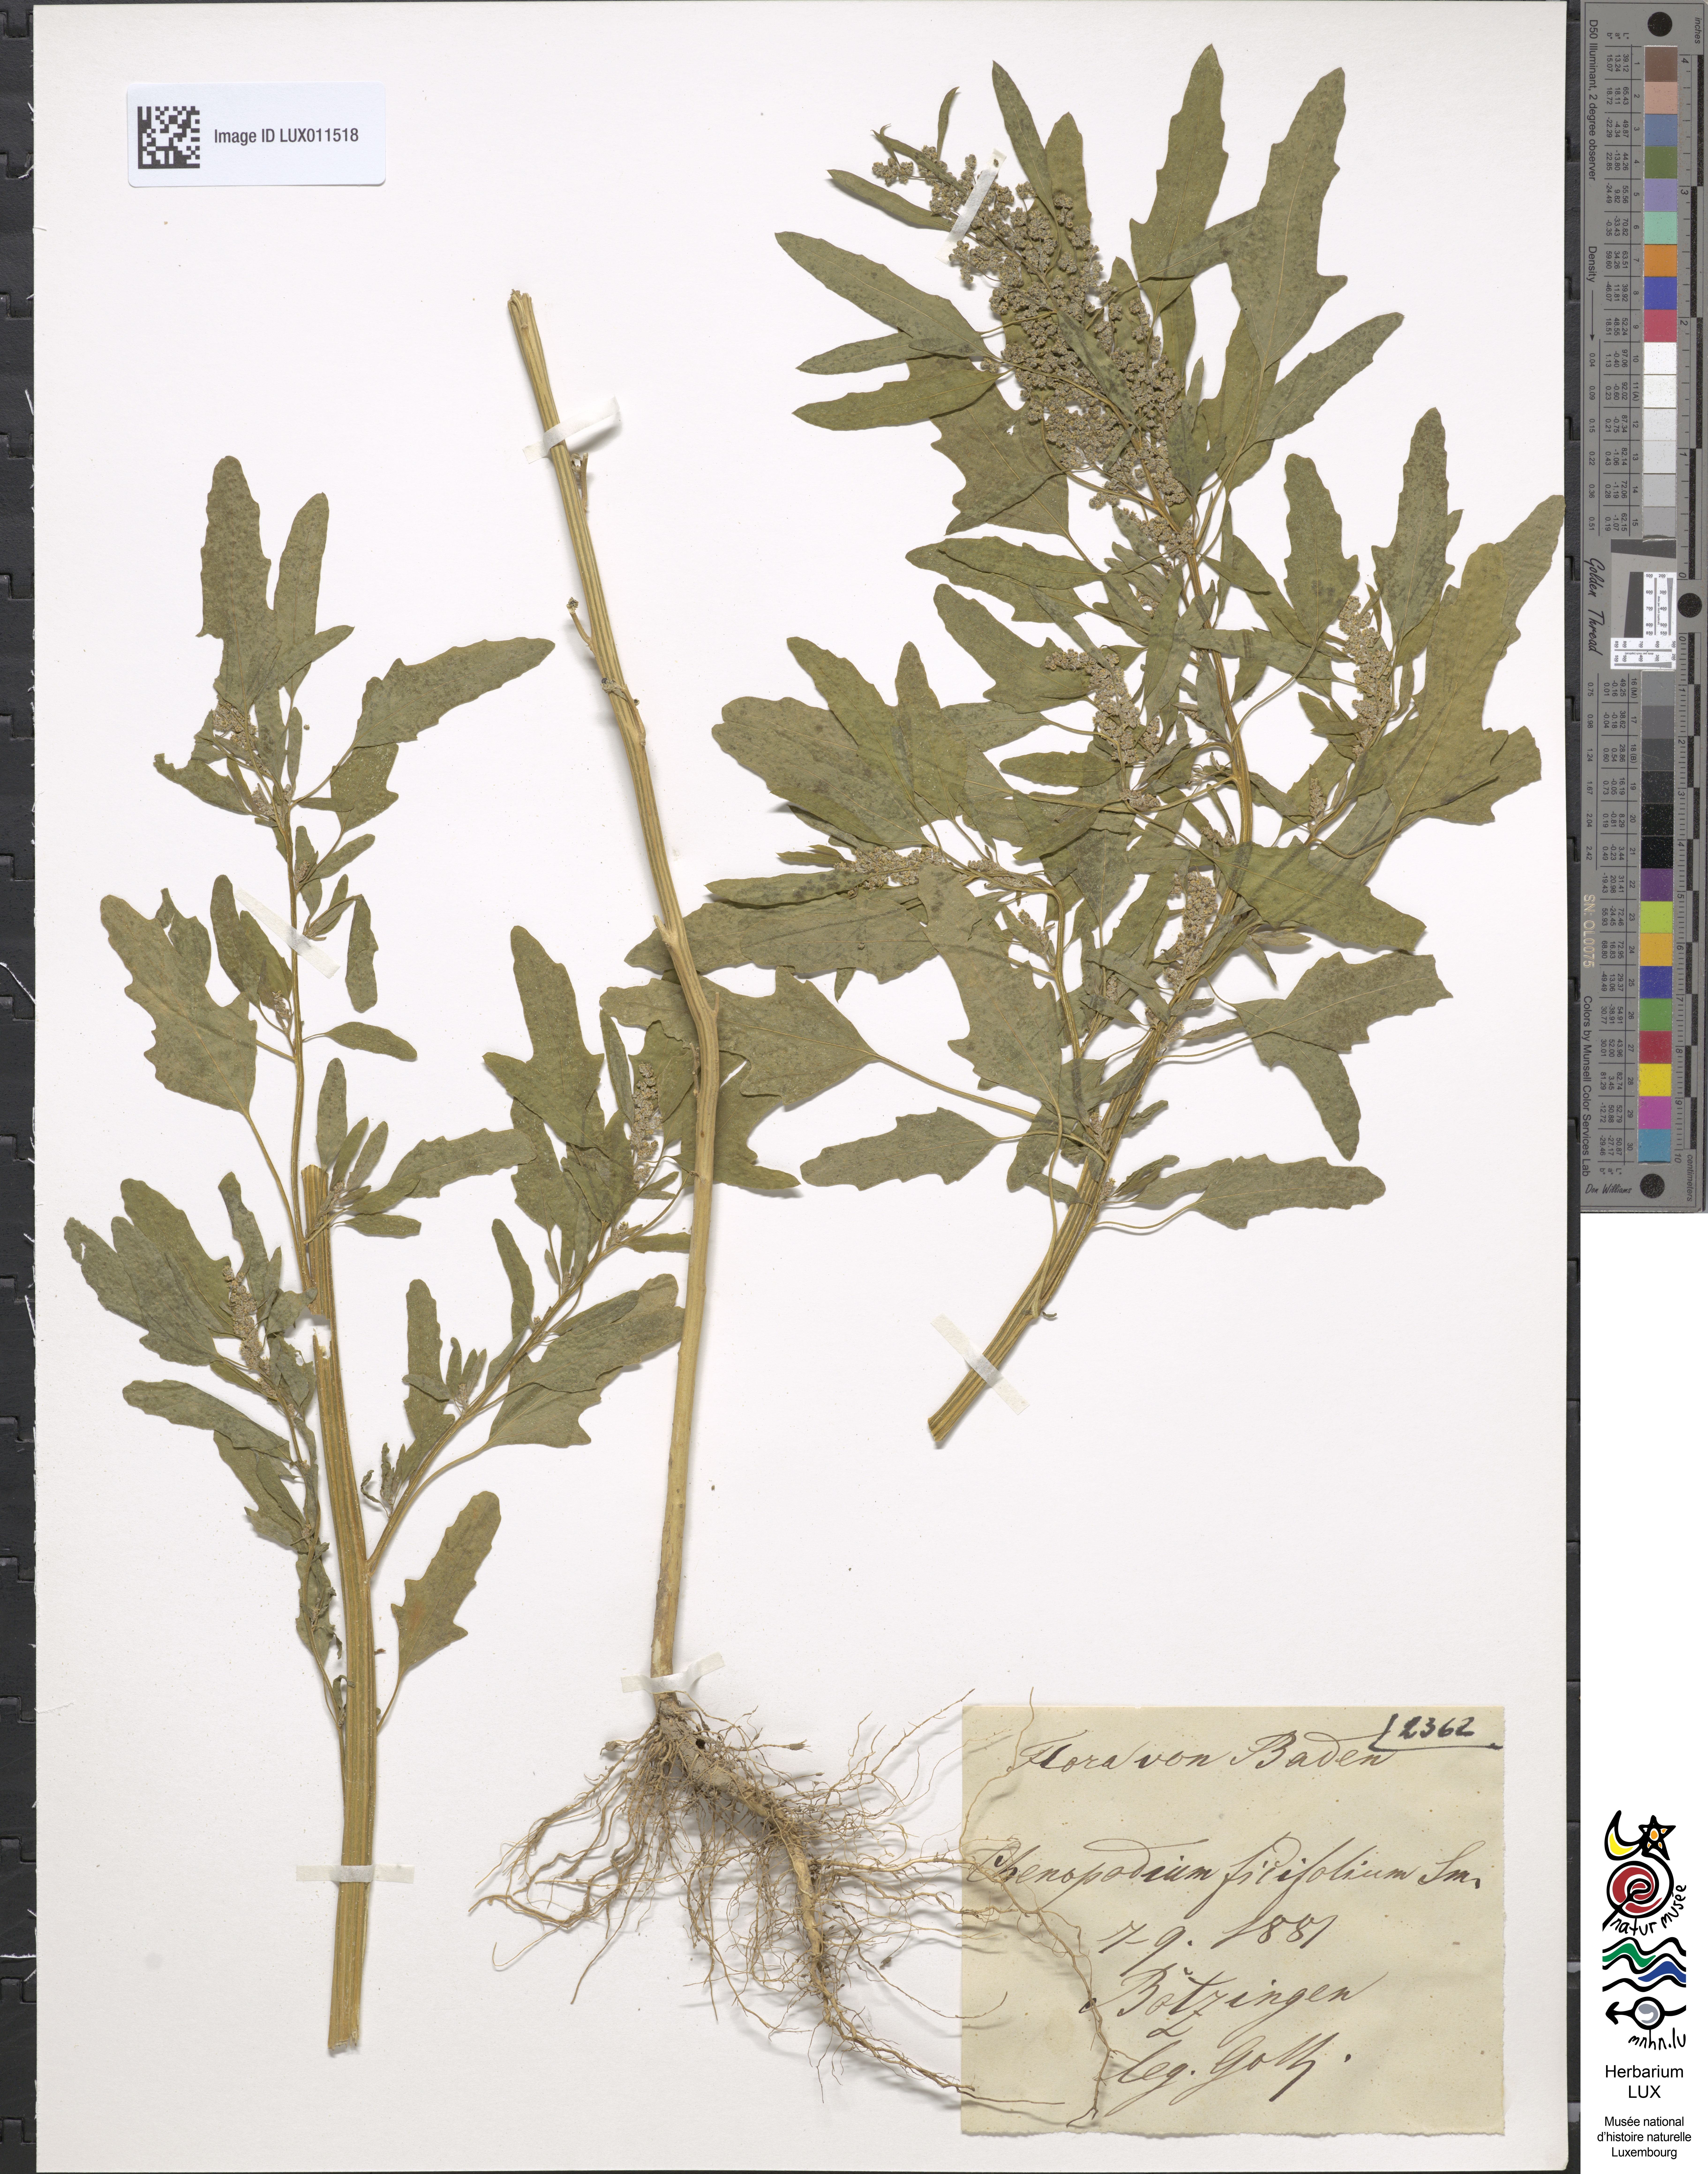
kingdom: Plantae
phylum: Tracheophyta
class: Magnoliopsida
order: Caryophyllales
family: Amaranthaceae
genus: Chenopodium
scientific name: Chenopodium ficifolium
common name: Fig-leaved goosefoot
